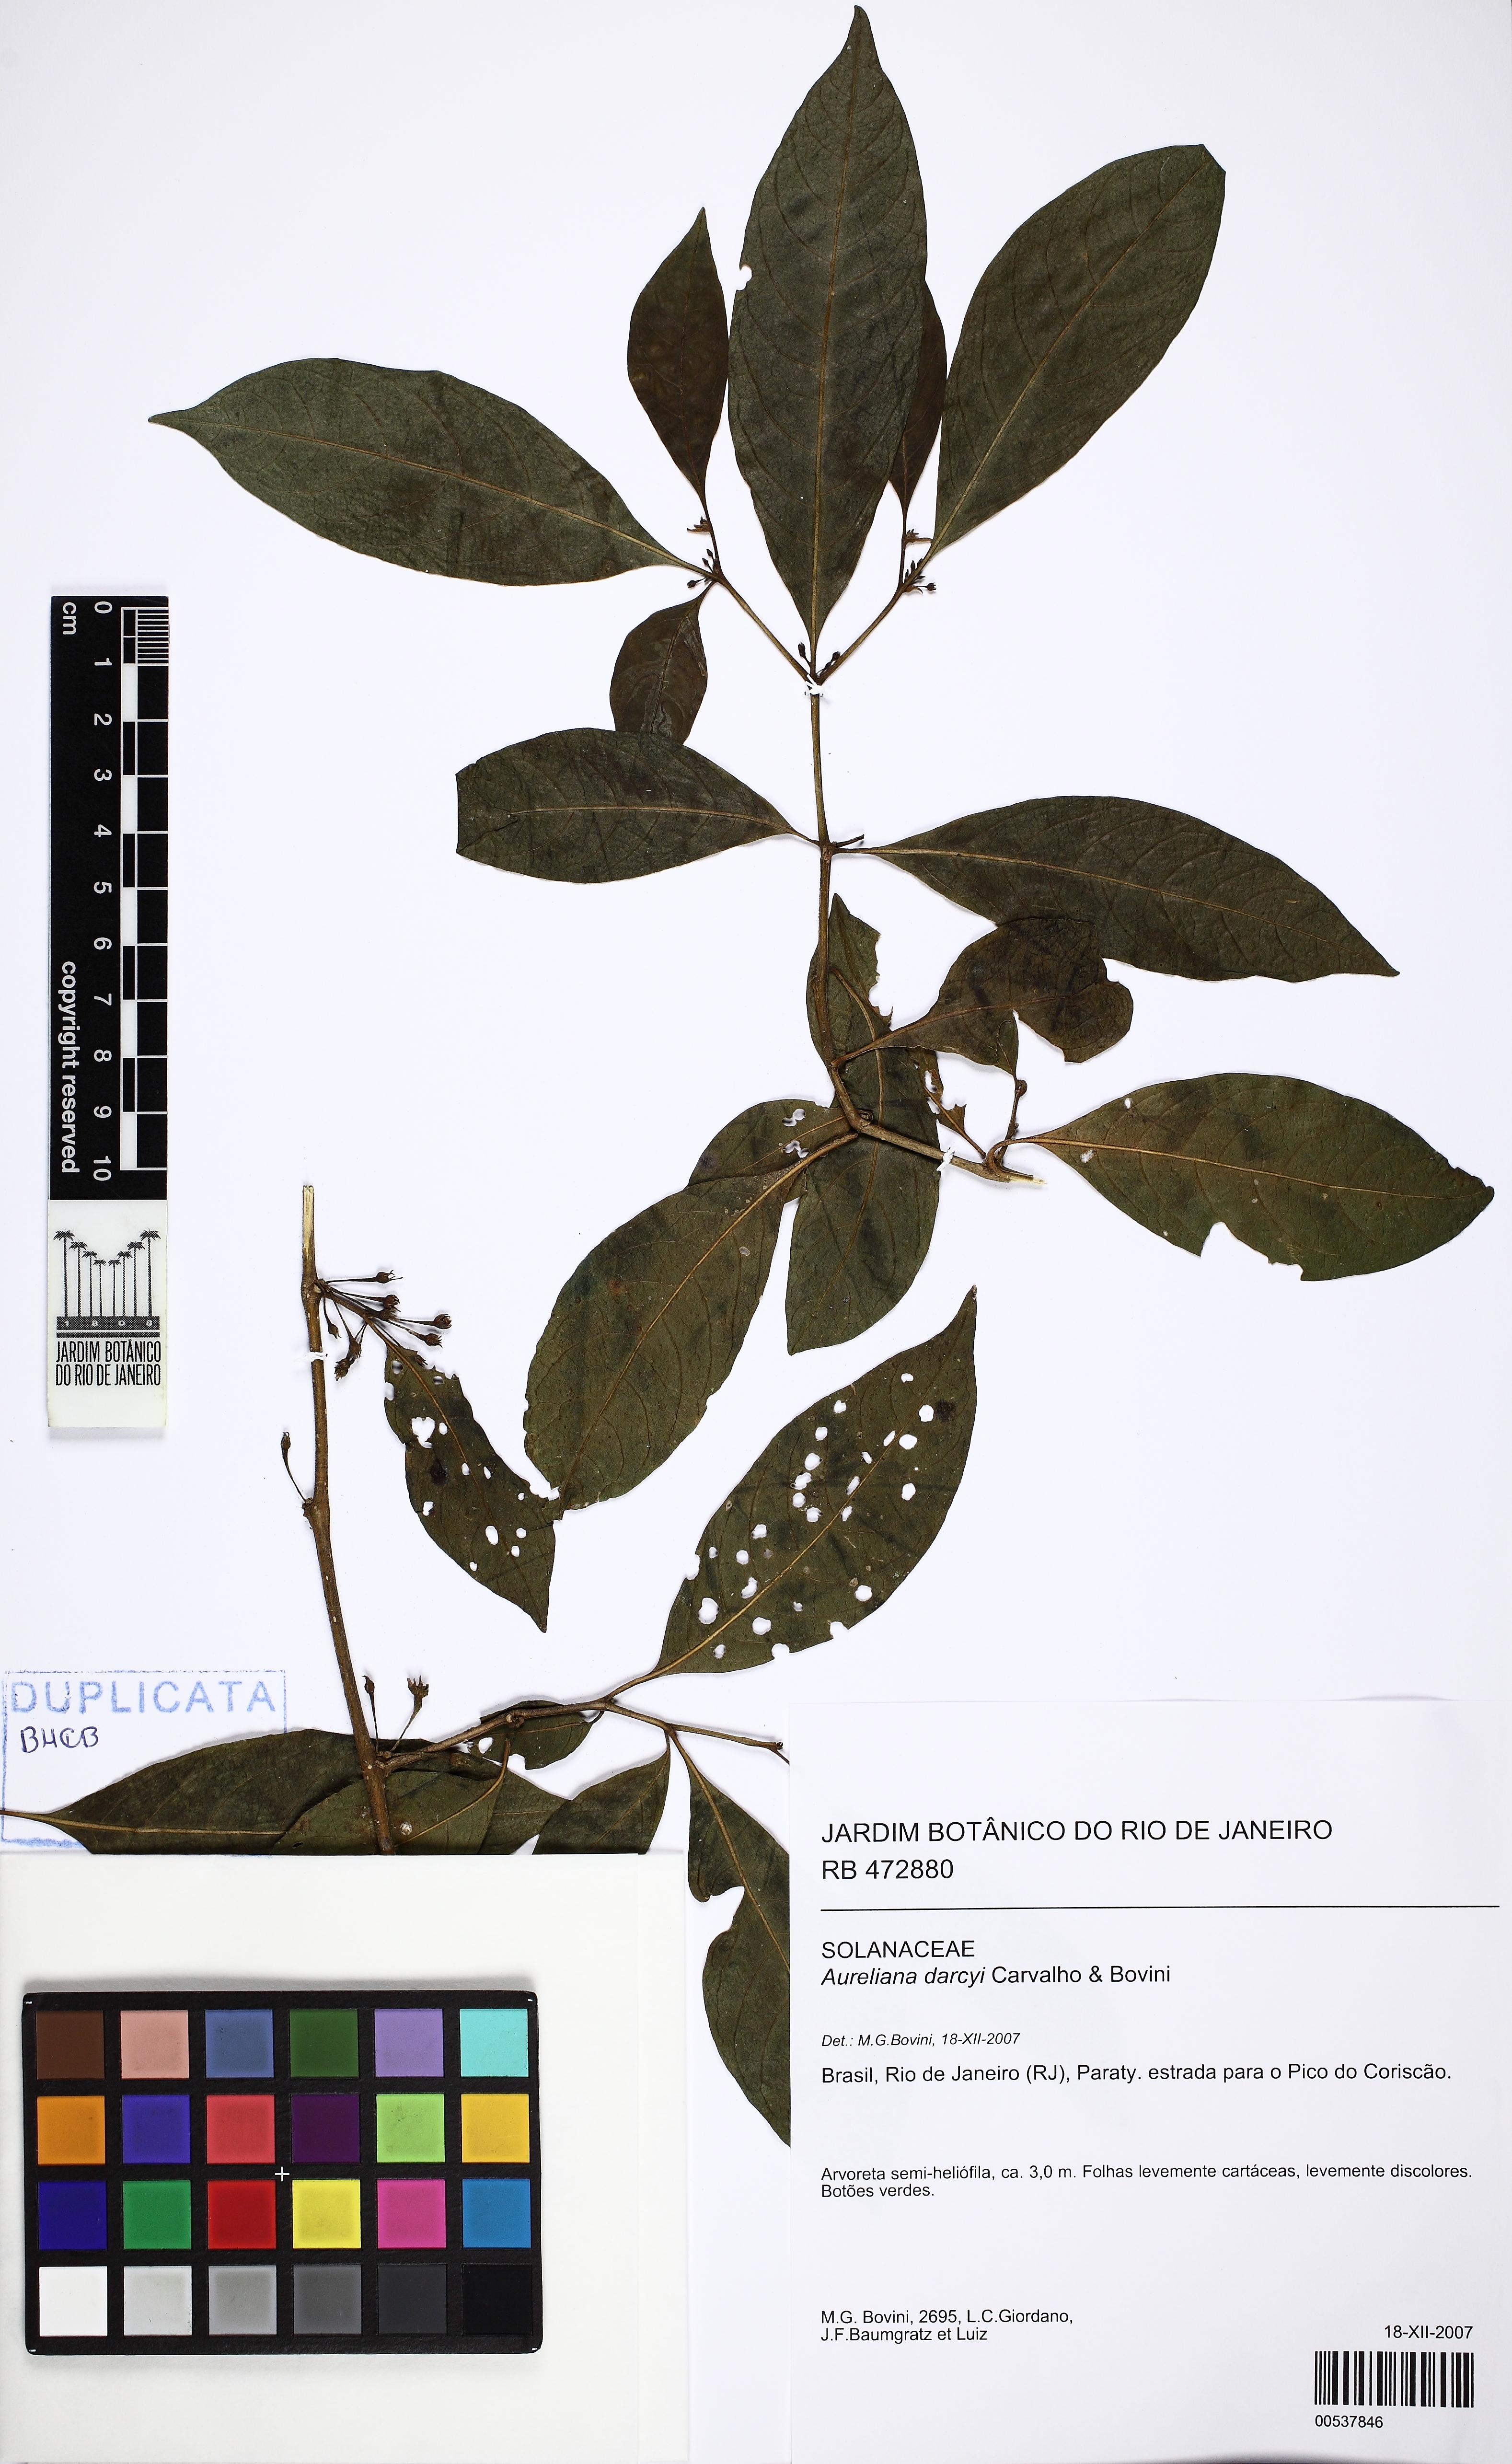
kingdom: Plantae
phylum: Tracheophyta
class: Magnoliopsida
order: Solanales
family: Solanaceae
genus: Athenaea
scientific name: Athenaea fasciculata
